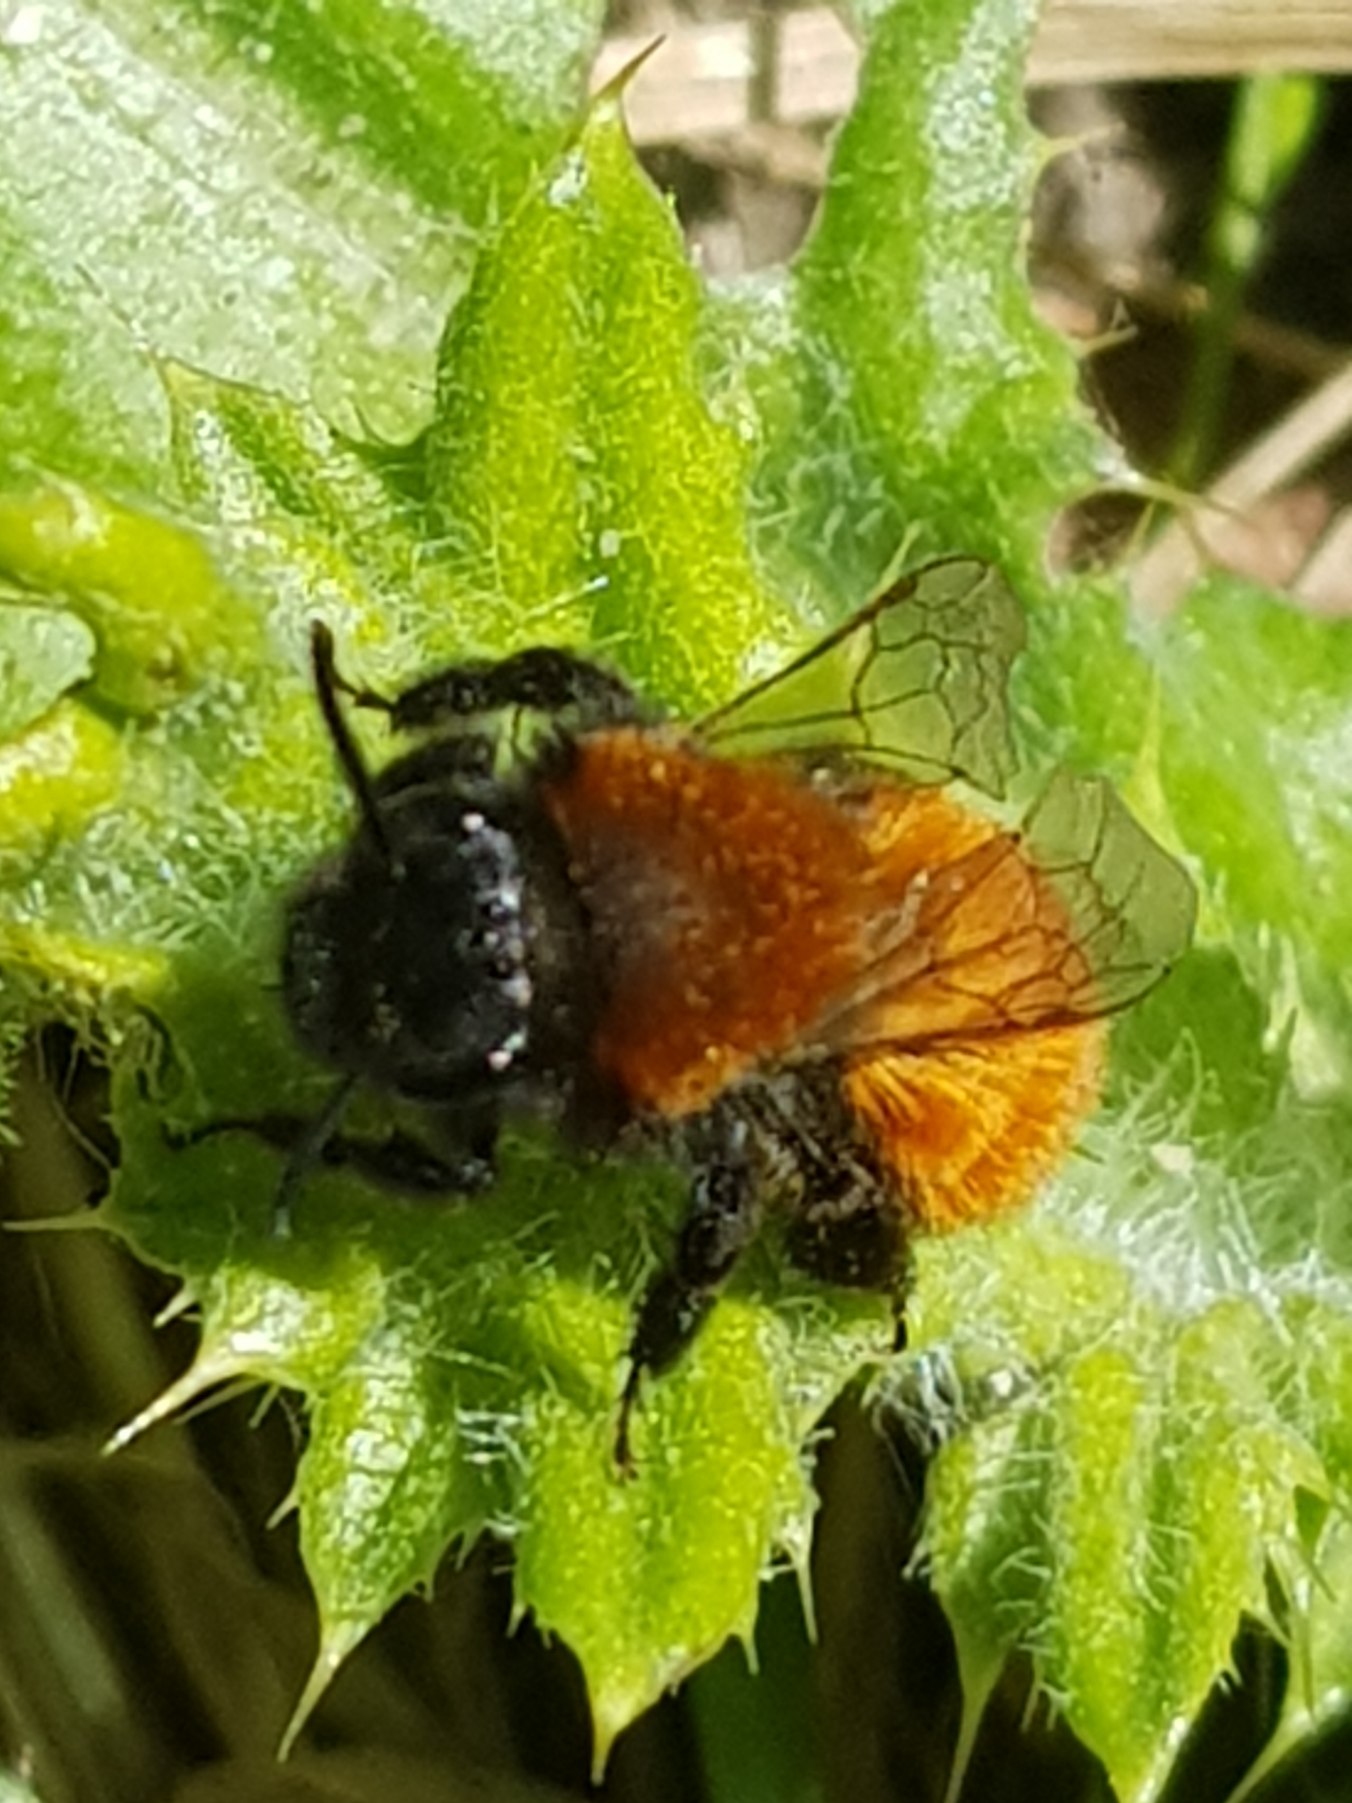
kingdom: Animalia
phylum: Arthropoda
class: Insecta
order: Hymenoptera
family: Andrenidae
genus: Andrena
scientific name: Andrena fulva
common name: Rødpelset jordbi
